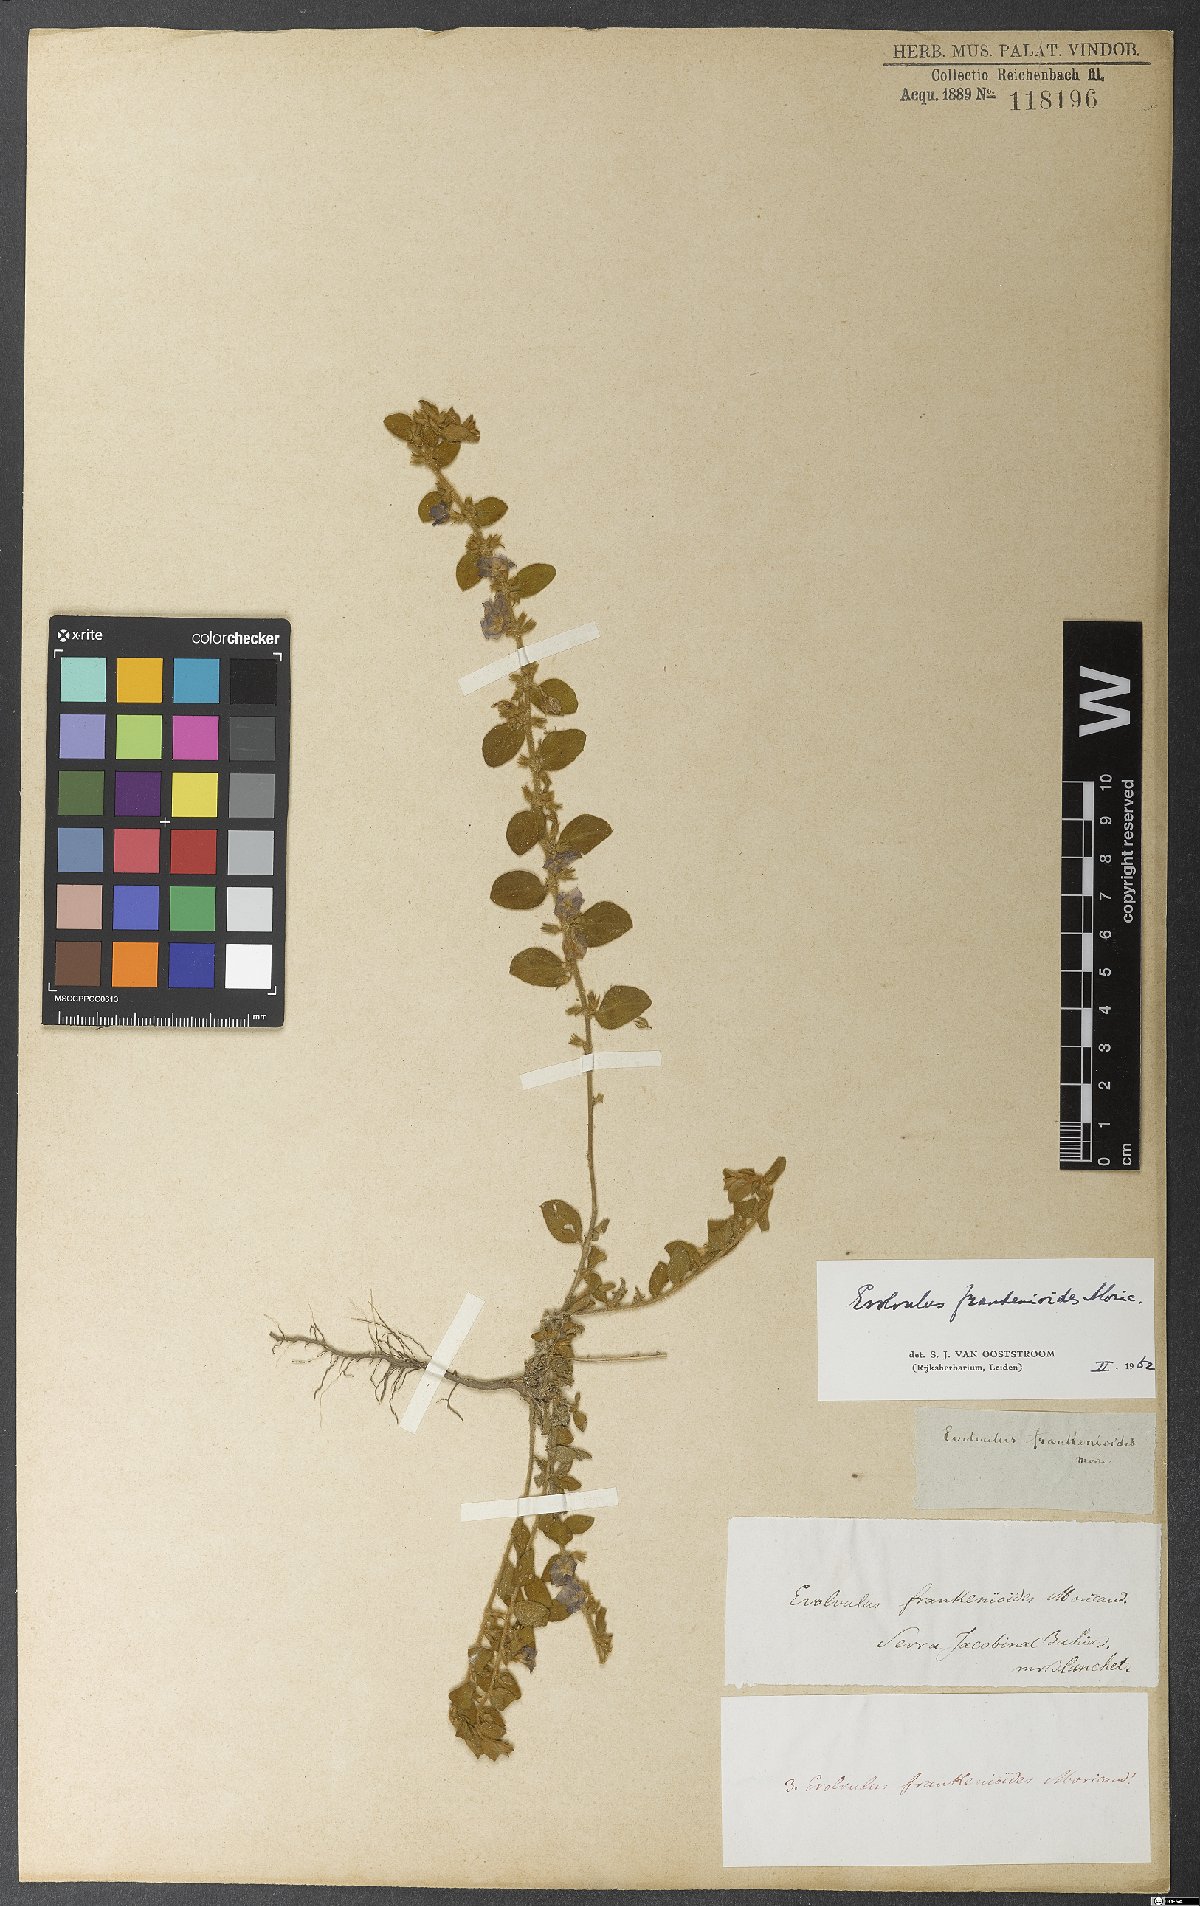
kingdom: Plantae
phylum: Tracheophyta
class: Magnoliopsida
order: Solanales
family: Convolvulaceae
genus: Evolvulus
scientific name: Evolvulus frankenioides
